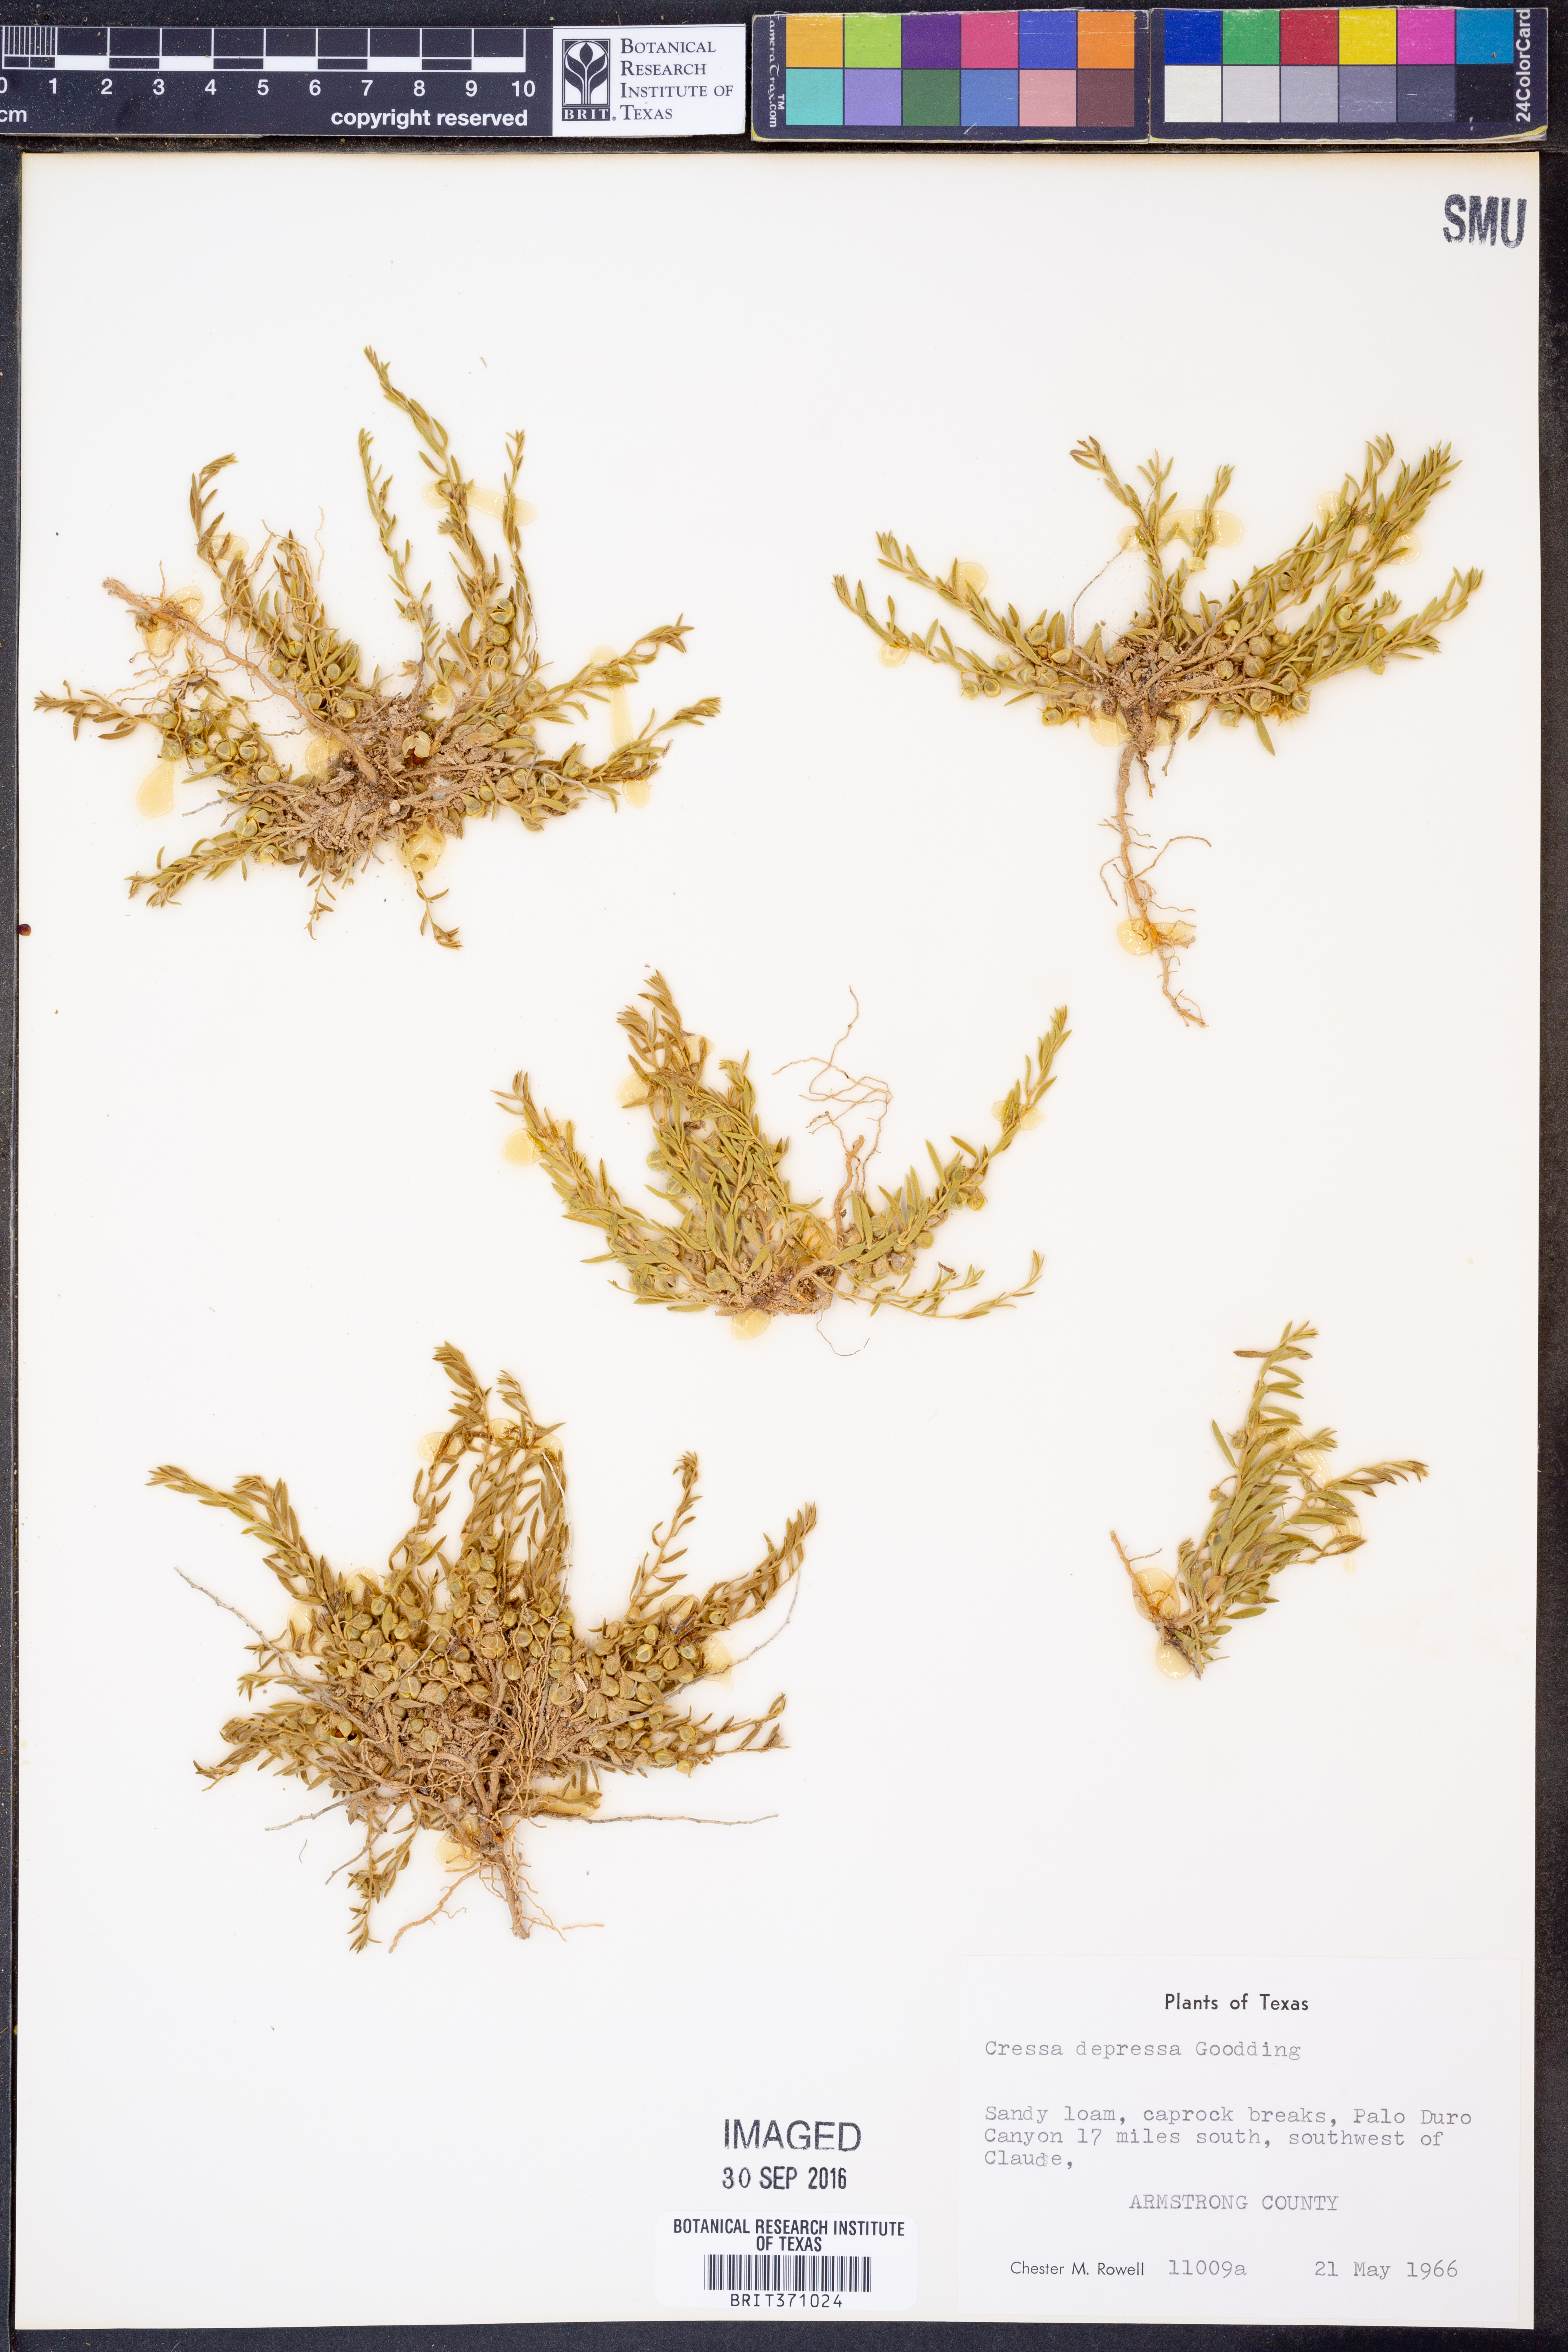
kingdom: Plantae
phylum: Tracheophyta
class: Magnoliopsida
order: Solanales
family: Convolvulaceae
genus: Cressa
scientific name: Cressa truxillensis
